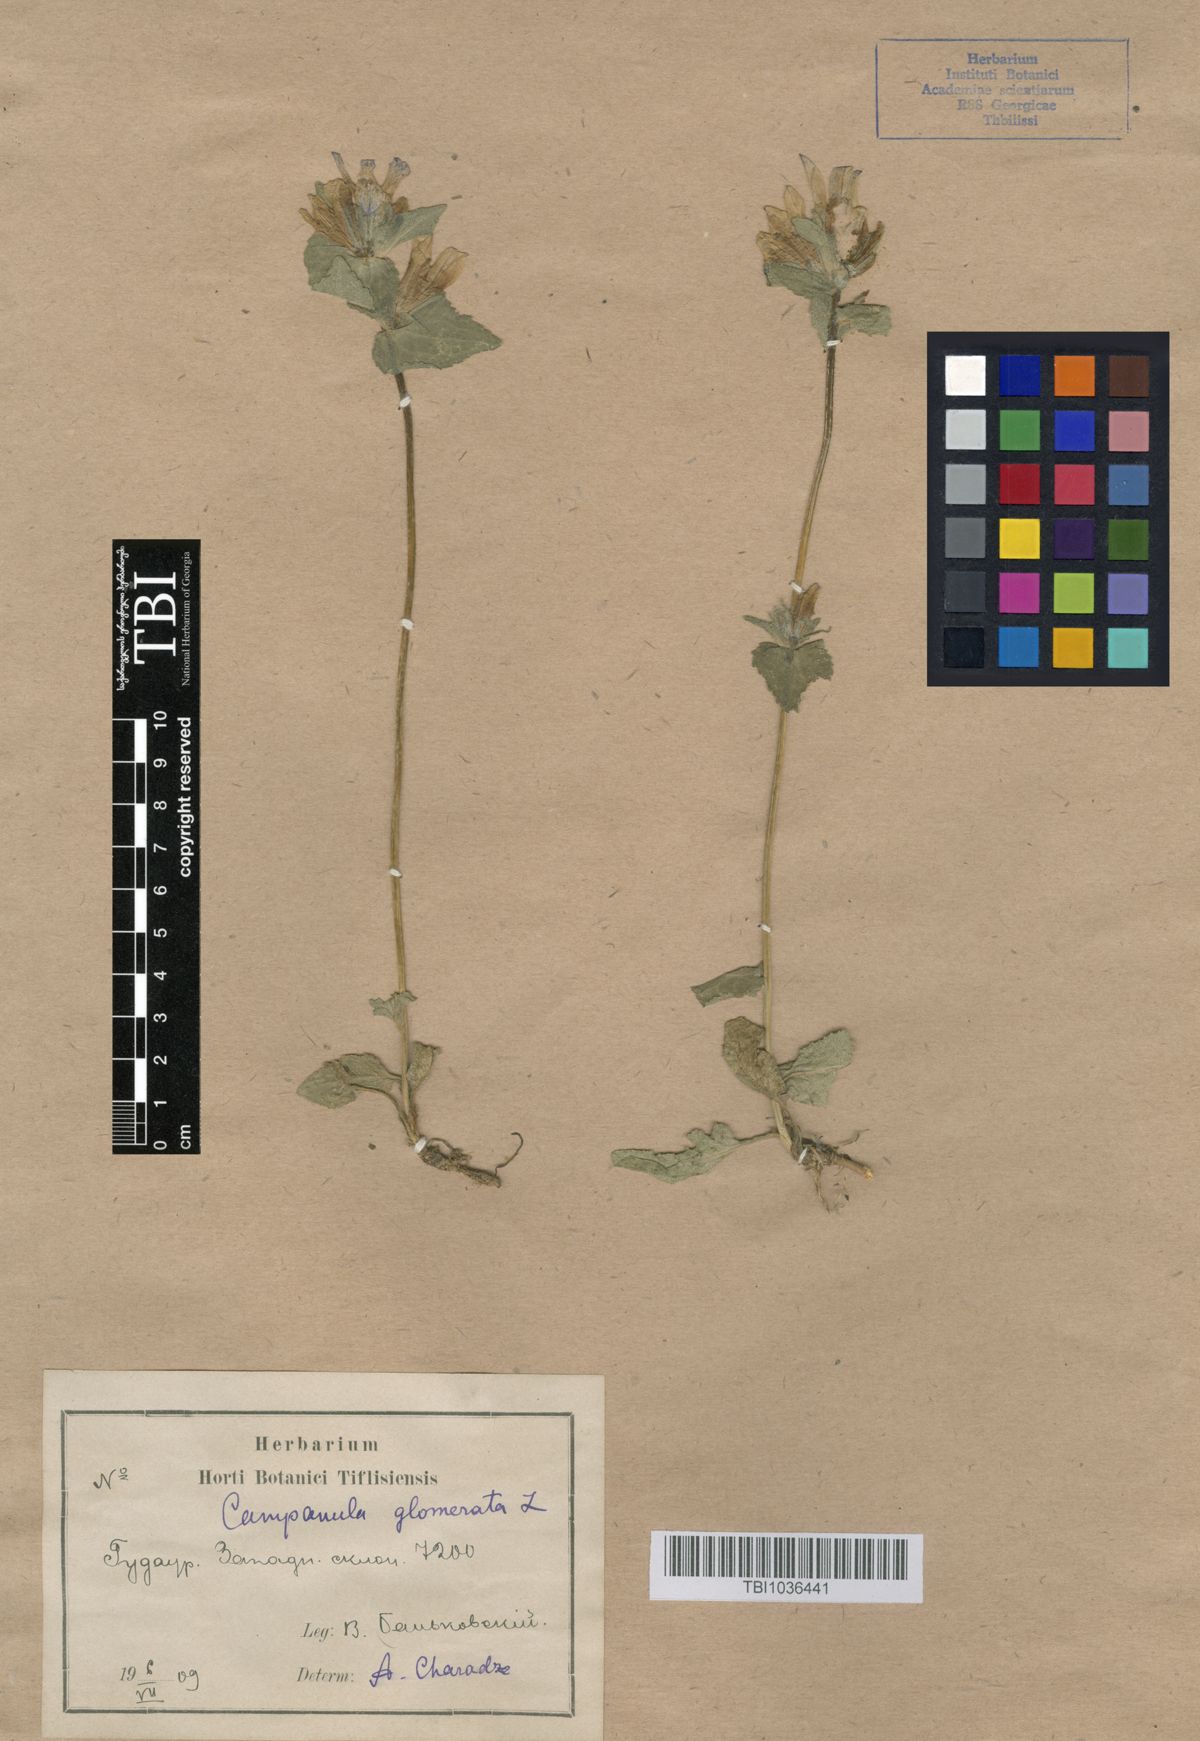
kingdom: Plantae
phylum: Tracheophyta
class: Magnoliopsida
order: Asterales
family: Campanulaceae
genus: Campanula
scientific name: Campanula glomerata
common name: Clustered bellflower
